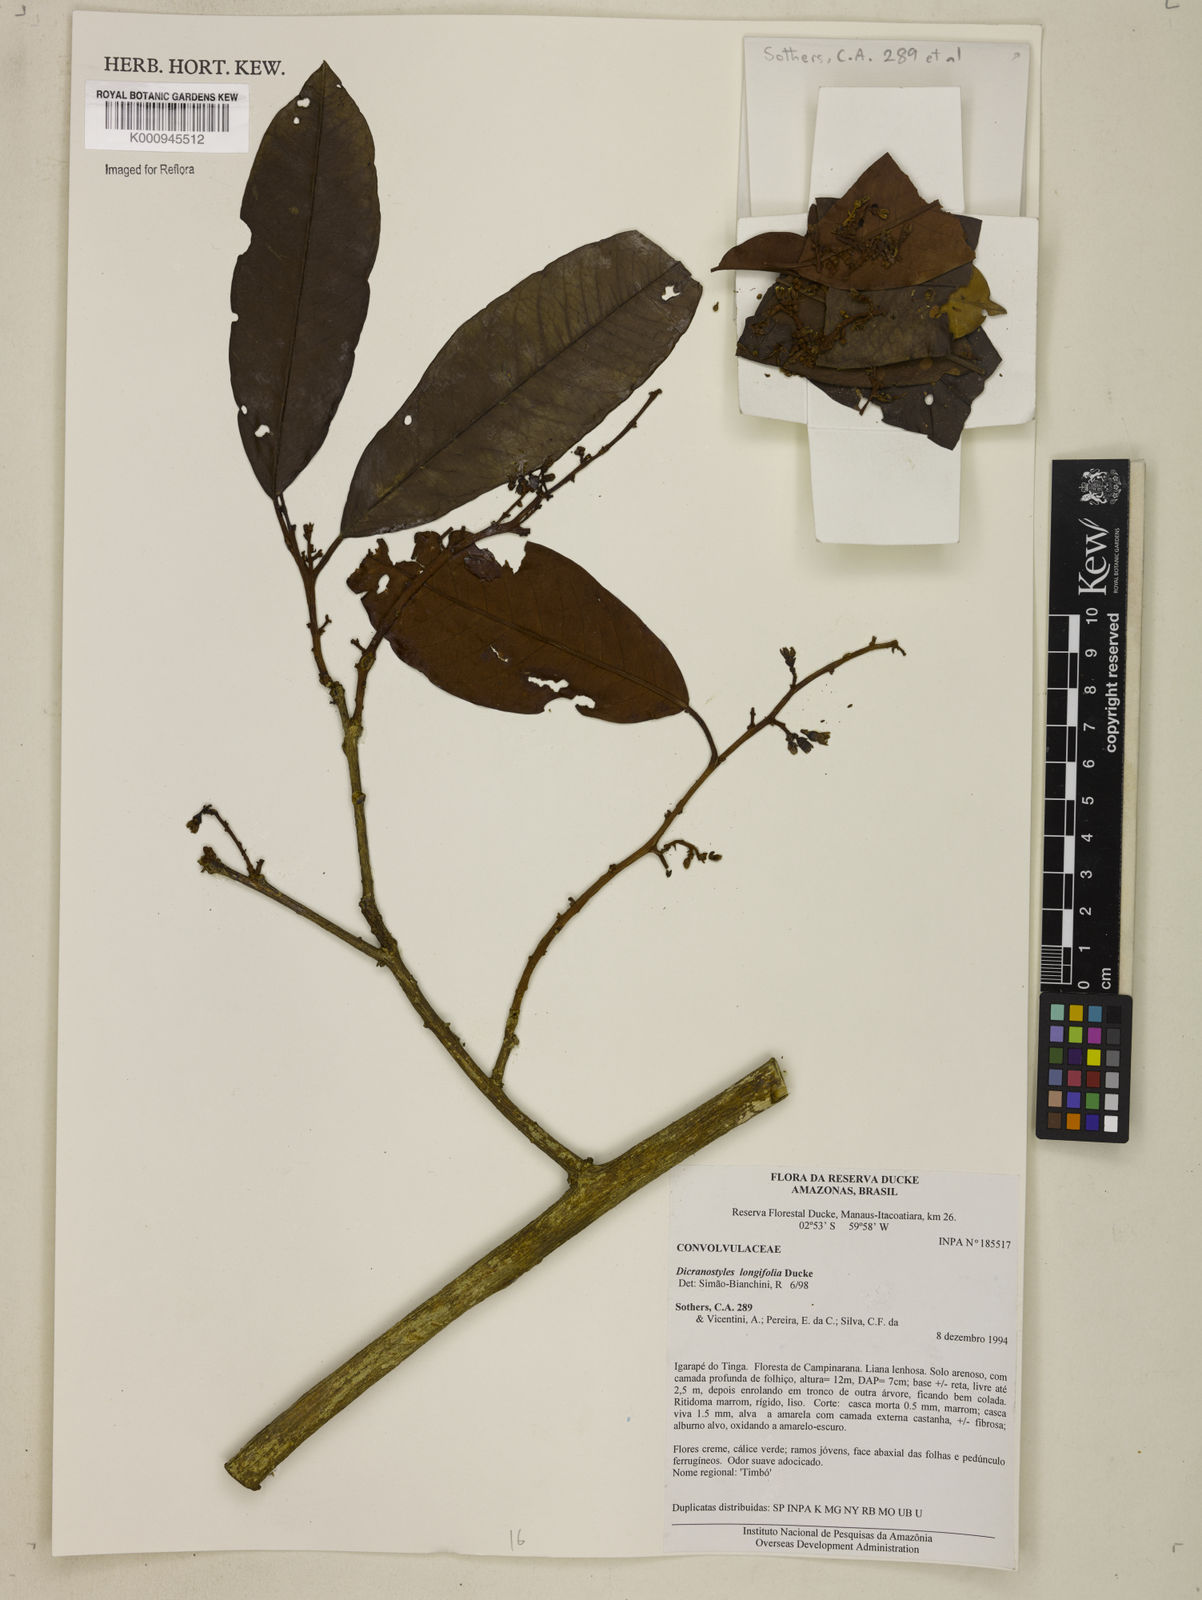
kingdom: Plantae
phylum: Tracheophyta
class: Magnoliopsida
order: Solanales
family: Convolvulaceae
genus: Dicranostyles
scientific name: Dicranostyles longifolia
